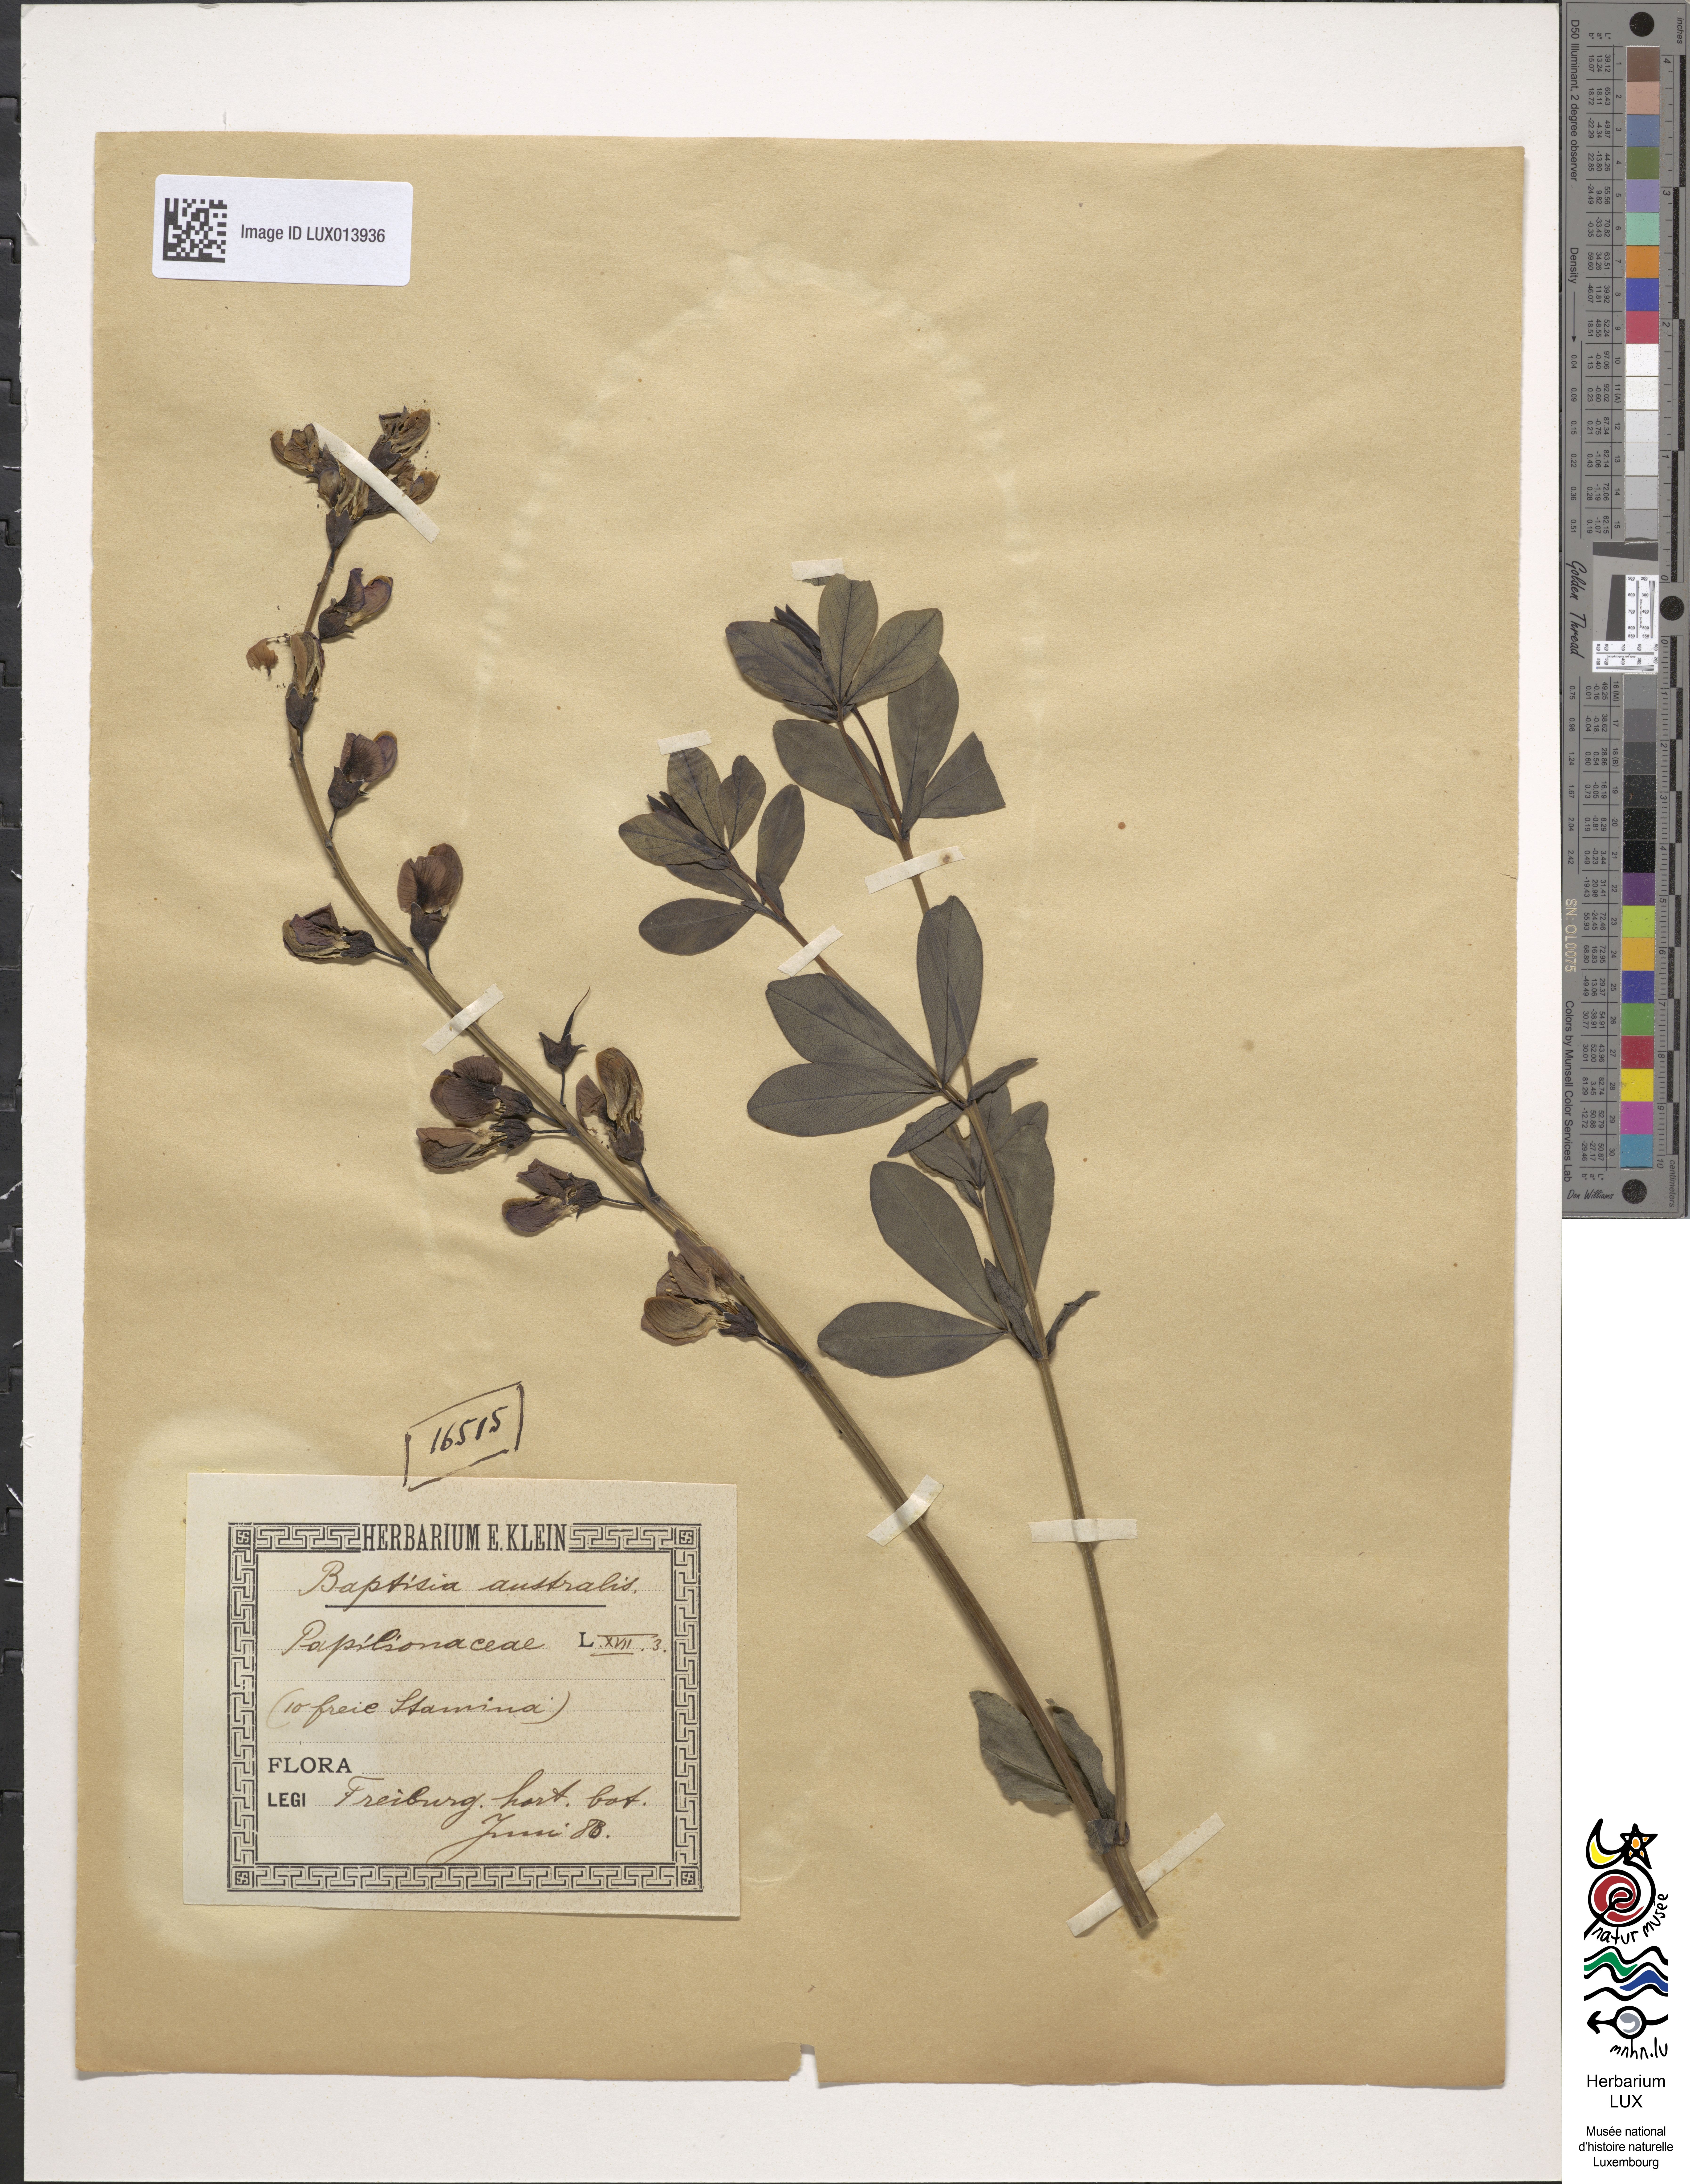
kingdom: Plantae
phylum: Tracheophyta
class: Magnoliopsida
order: Fabales
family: Fabaceae
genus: Baptisia
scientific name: Baptisia australis
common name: Blue false indigo
